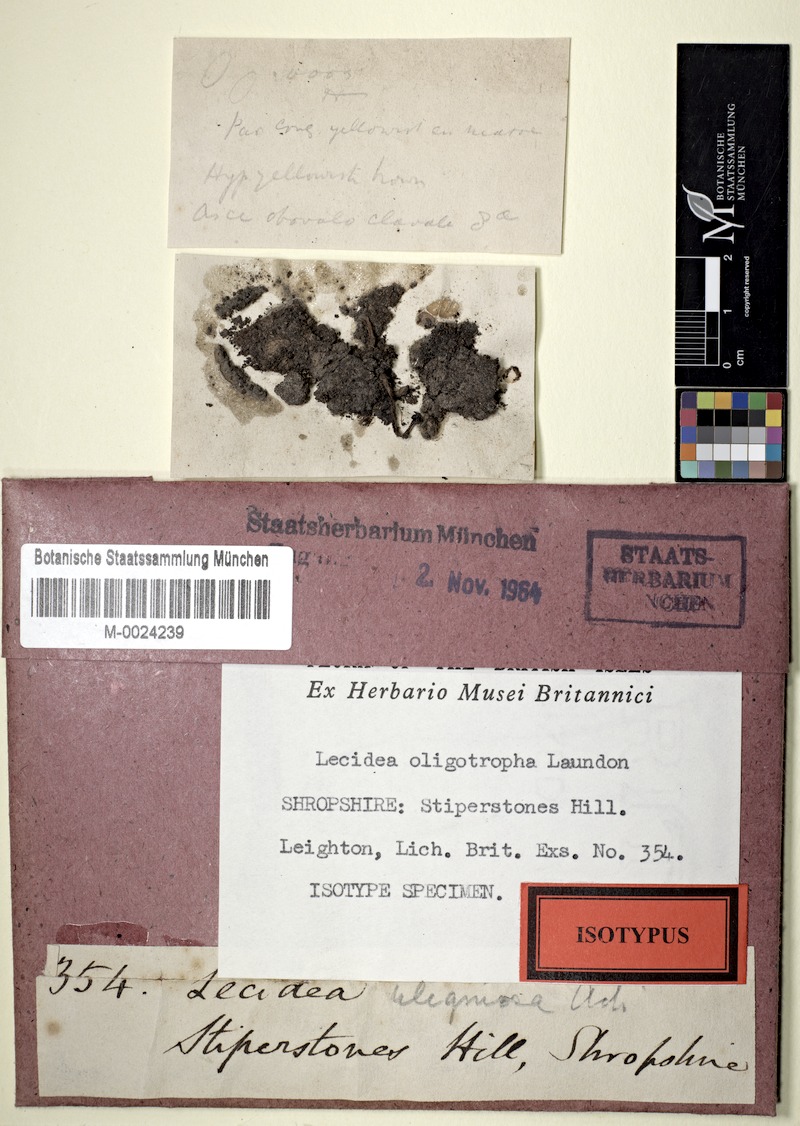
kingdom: Fungi
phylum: Ascomycota
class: Lecanoromycetes
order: Baeomycetales
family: Trapeliaceae
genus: Placynthiella
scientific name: Placynthiella oligotropha
